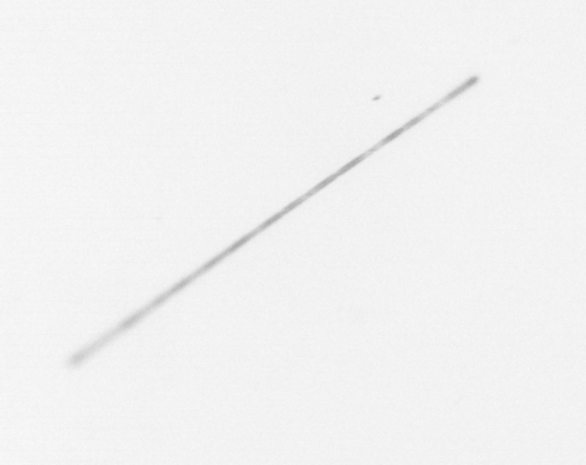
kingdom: Chromista
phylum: Ochrophyta
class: Bacillariophyceae
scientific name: Bacillariophyceae
